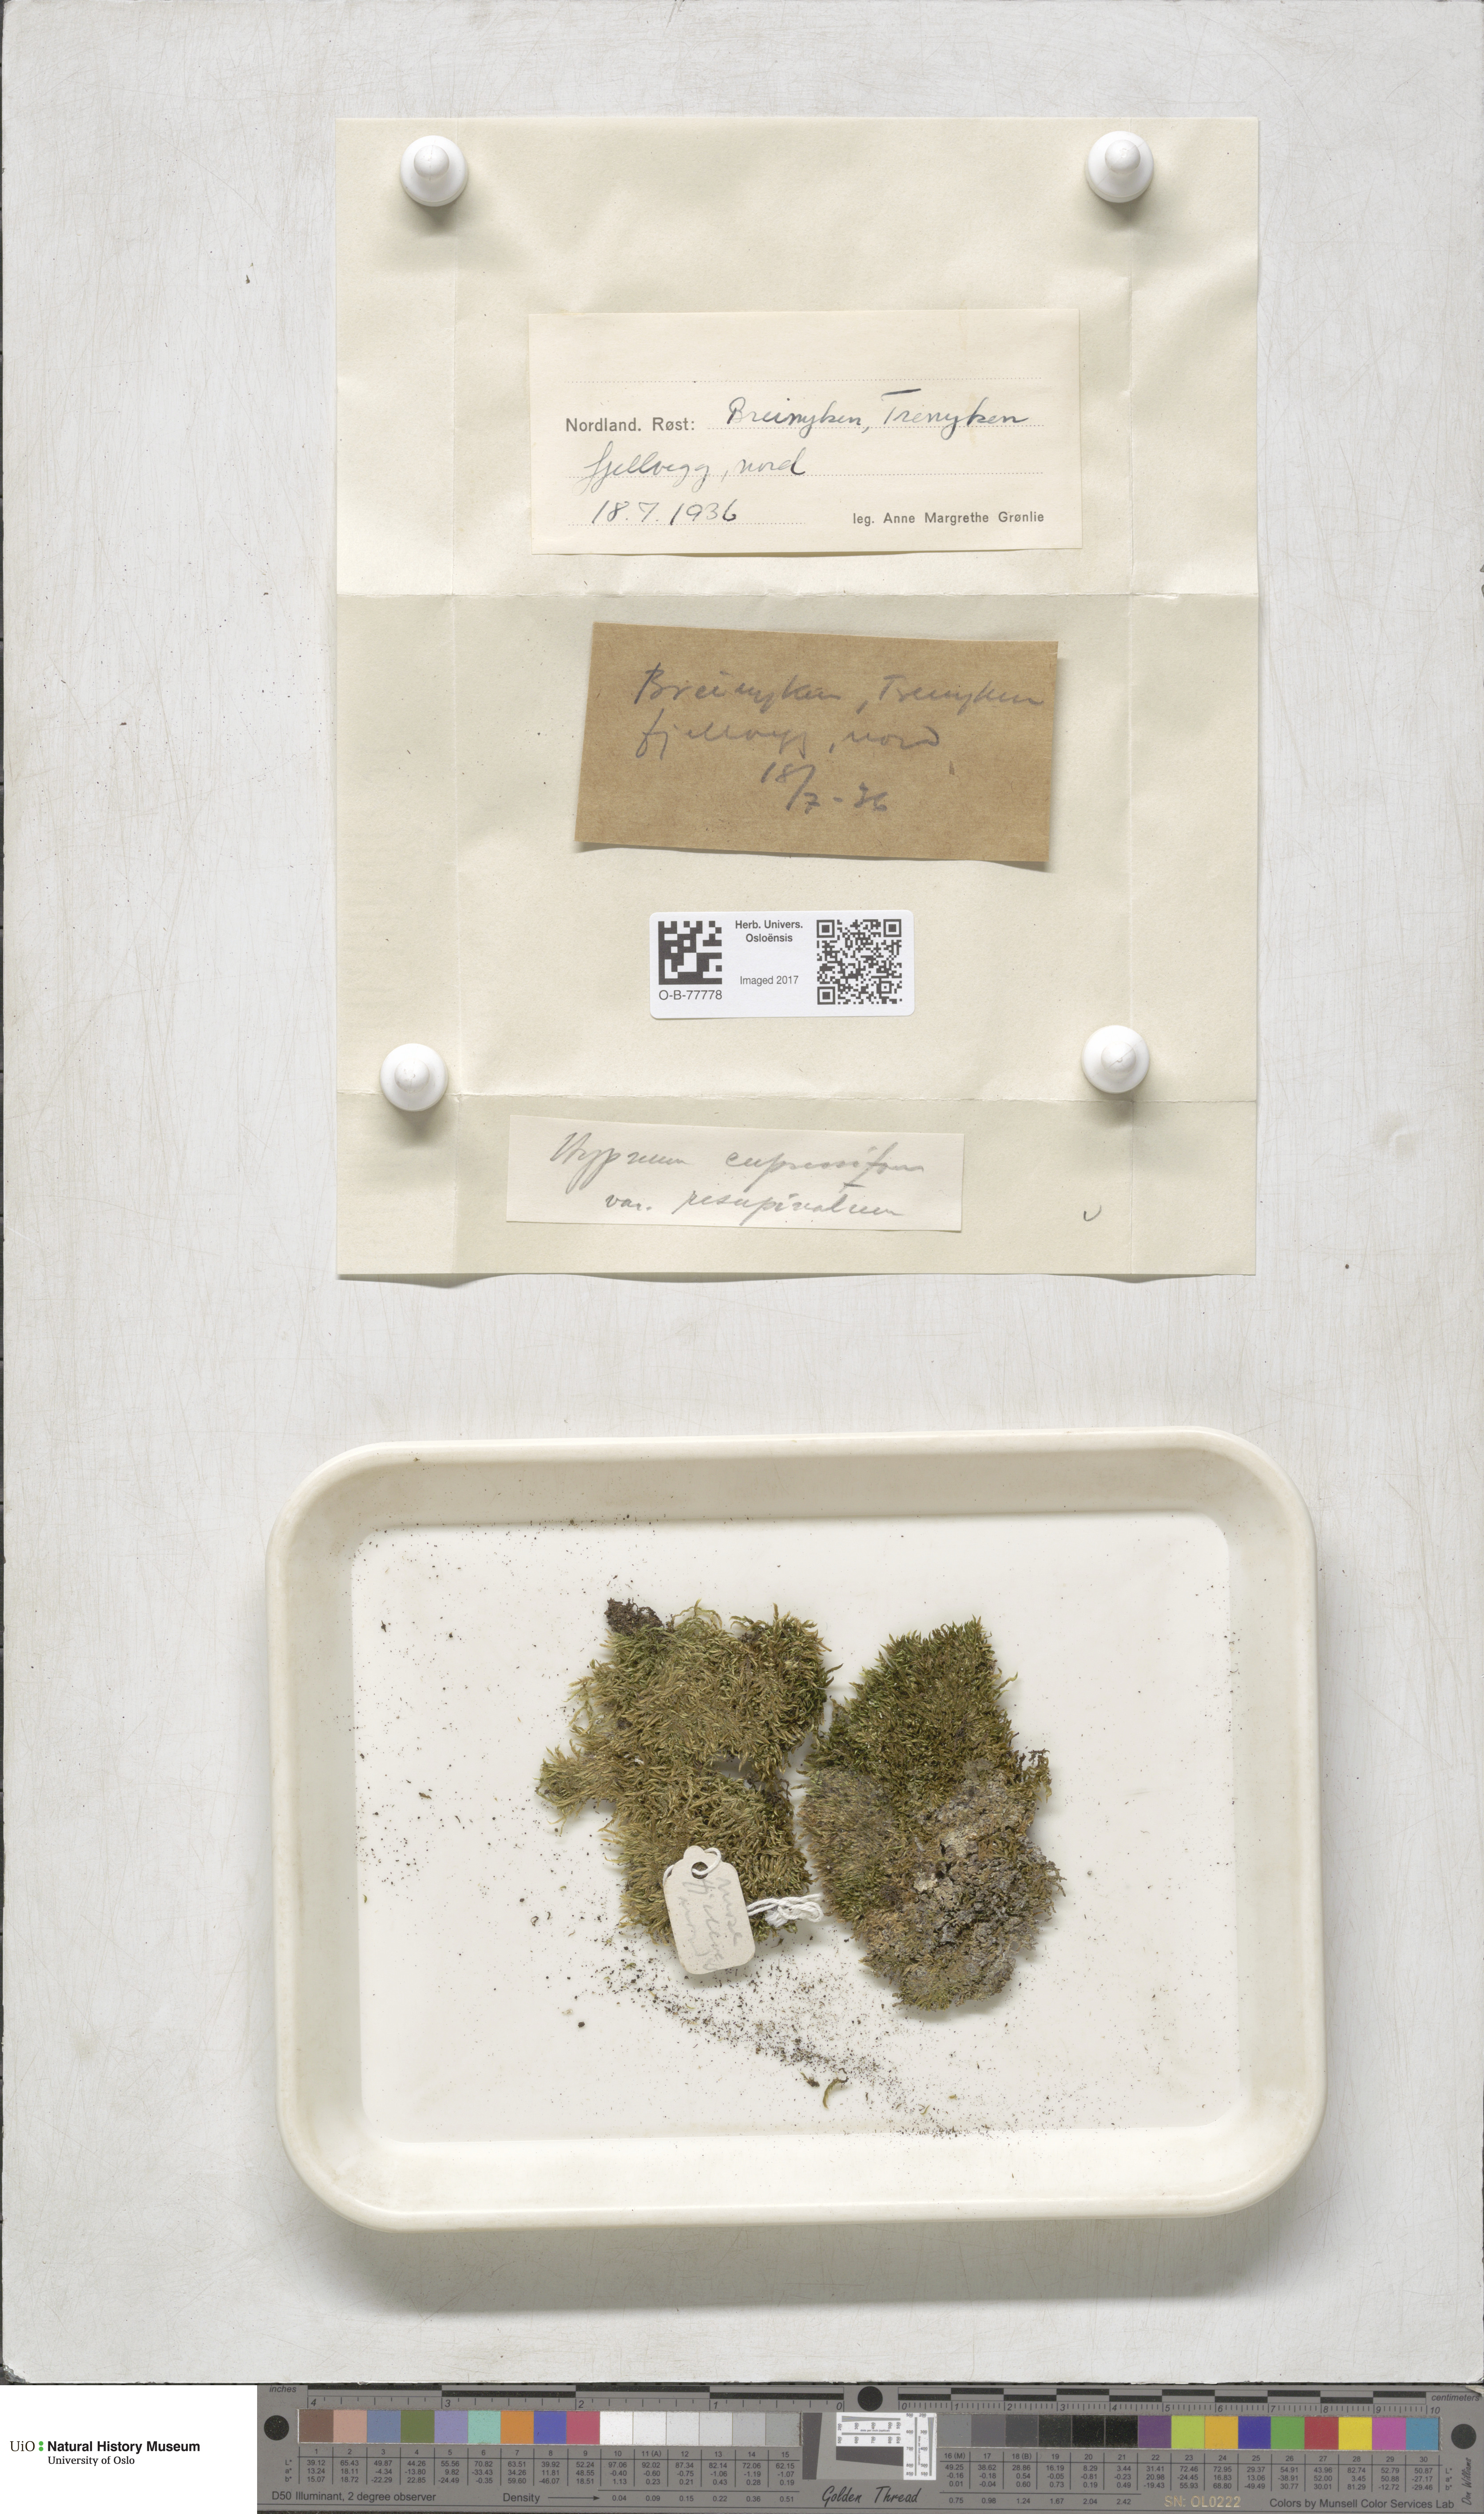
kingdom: Plantae
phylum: Bryophyta
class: Bryopsida
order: Hypnales
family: Hypnaceae
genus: Hypnum
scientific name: Hypnum cupressiforme
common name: Cypress-leaved plait-moss
